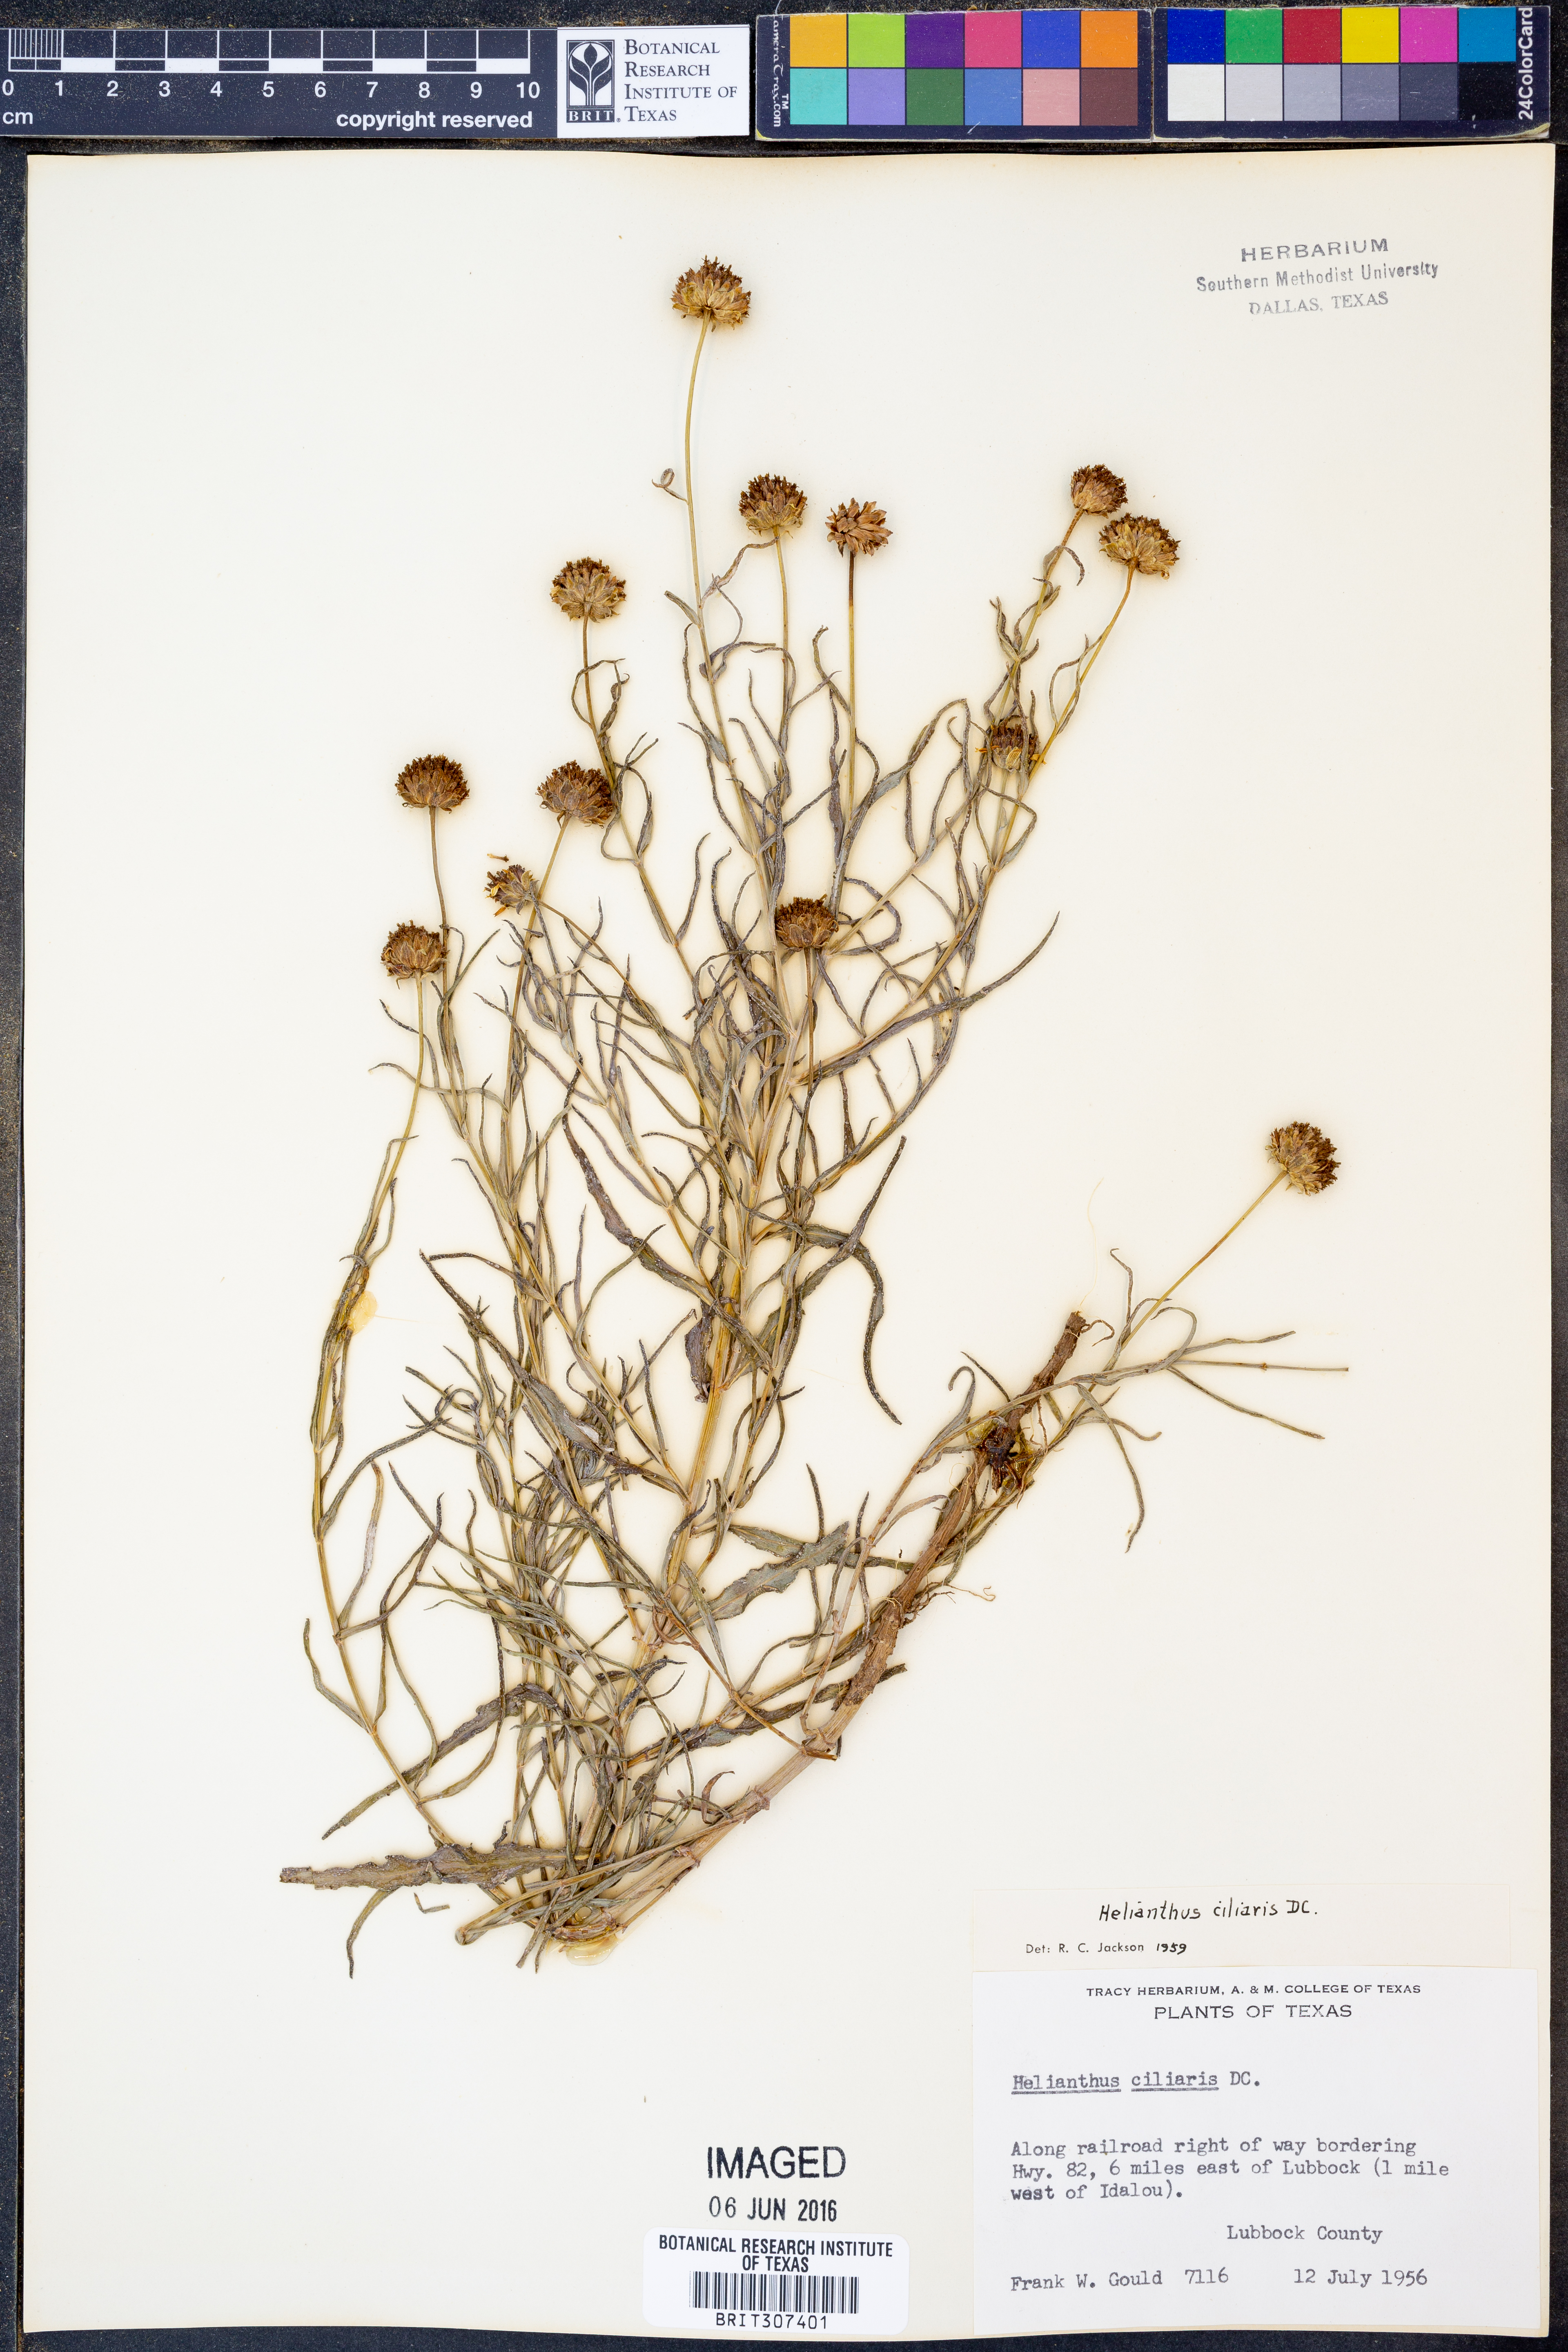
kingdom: Plantae
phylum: Tracheophyta
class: Magnoliopsida
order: Asterales
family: Asteraceae
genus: Helianthus
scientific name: Helianthus ciliaris
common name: Texas blueweed
